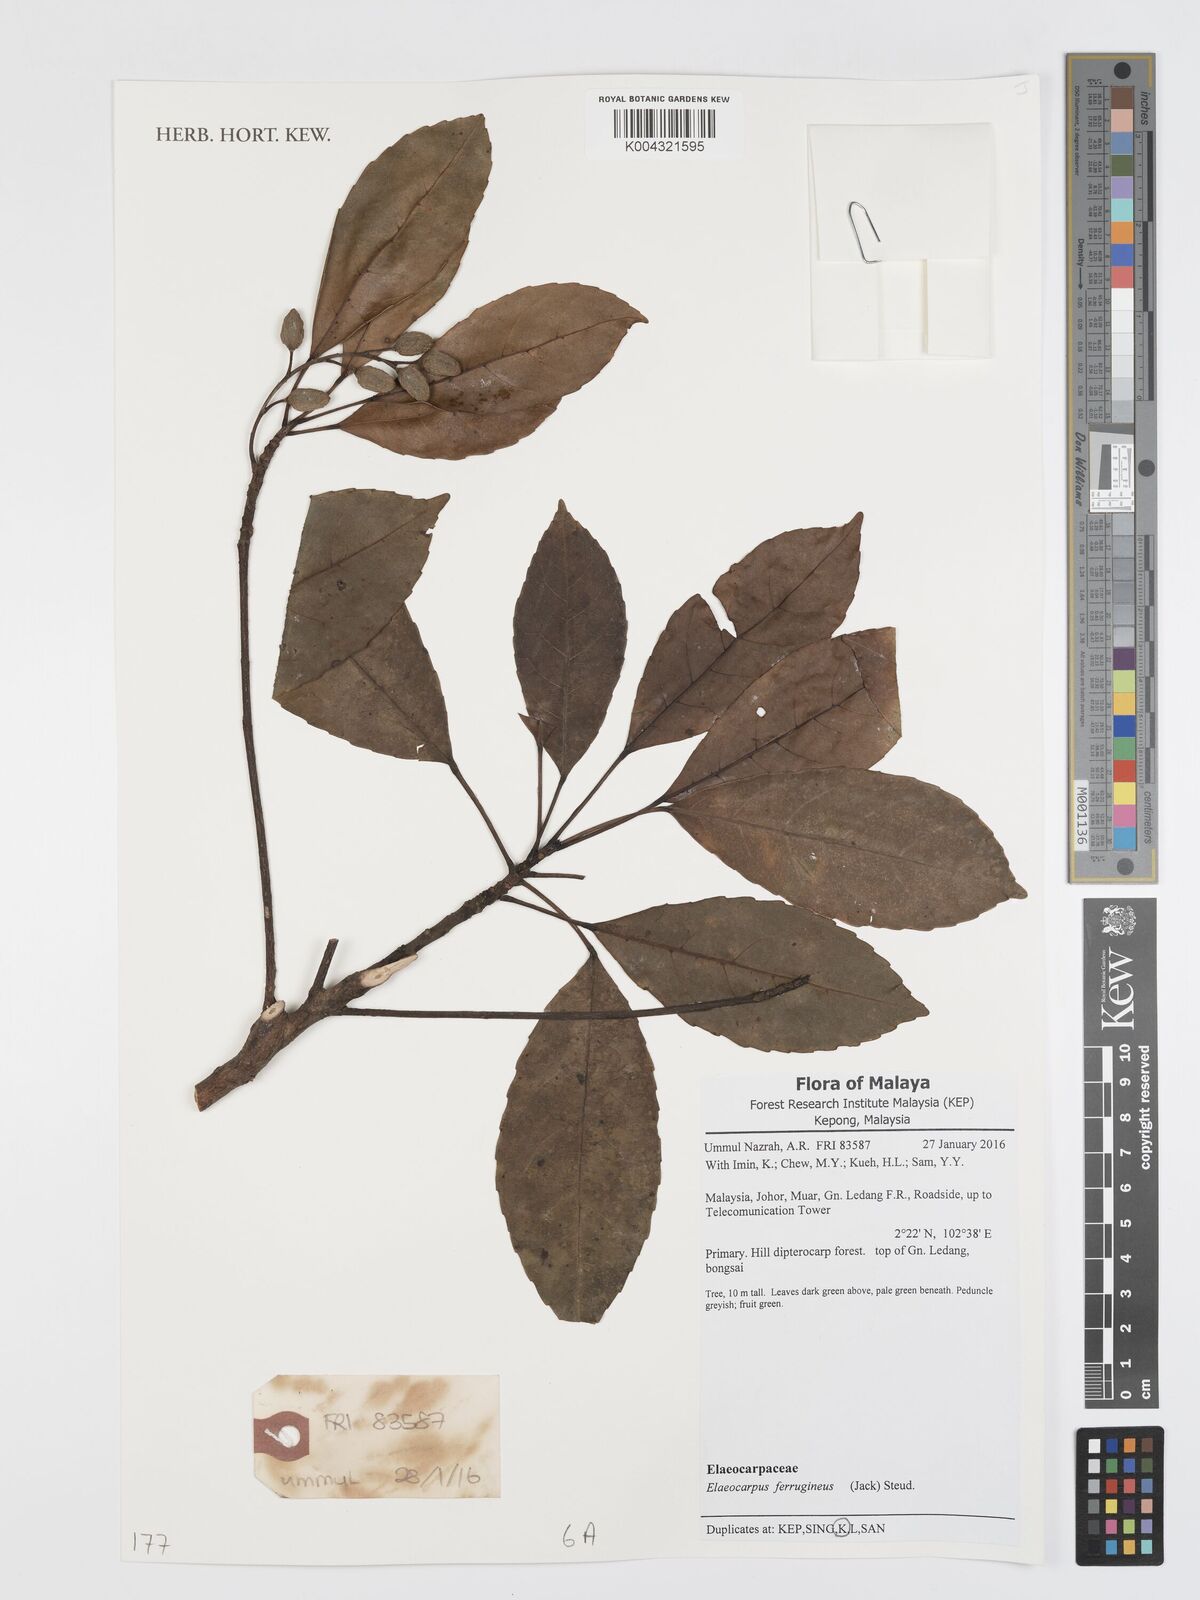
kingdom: Plantae
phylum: Tracheophyta
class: Magnoliopsida
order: Oxalidales
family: Elaeocarpaceae
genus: Elaeocarpus
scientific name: Elaeocarpus ferrugineus
